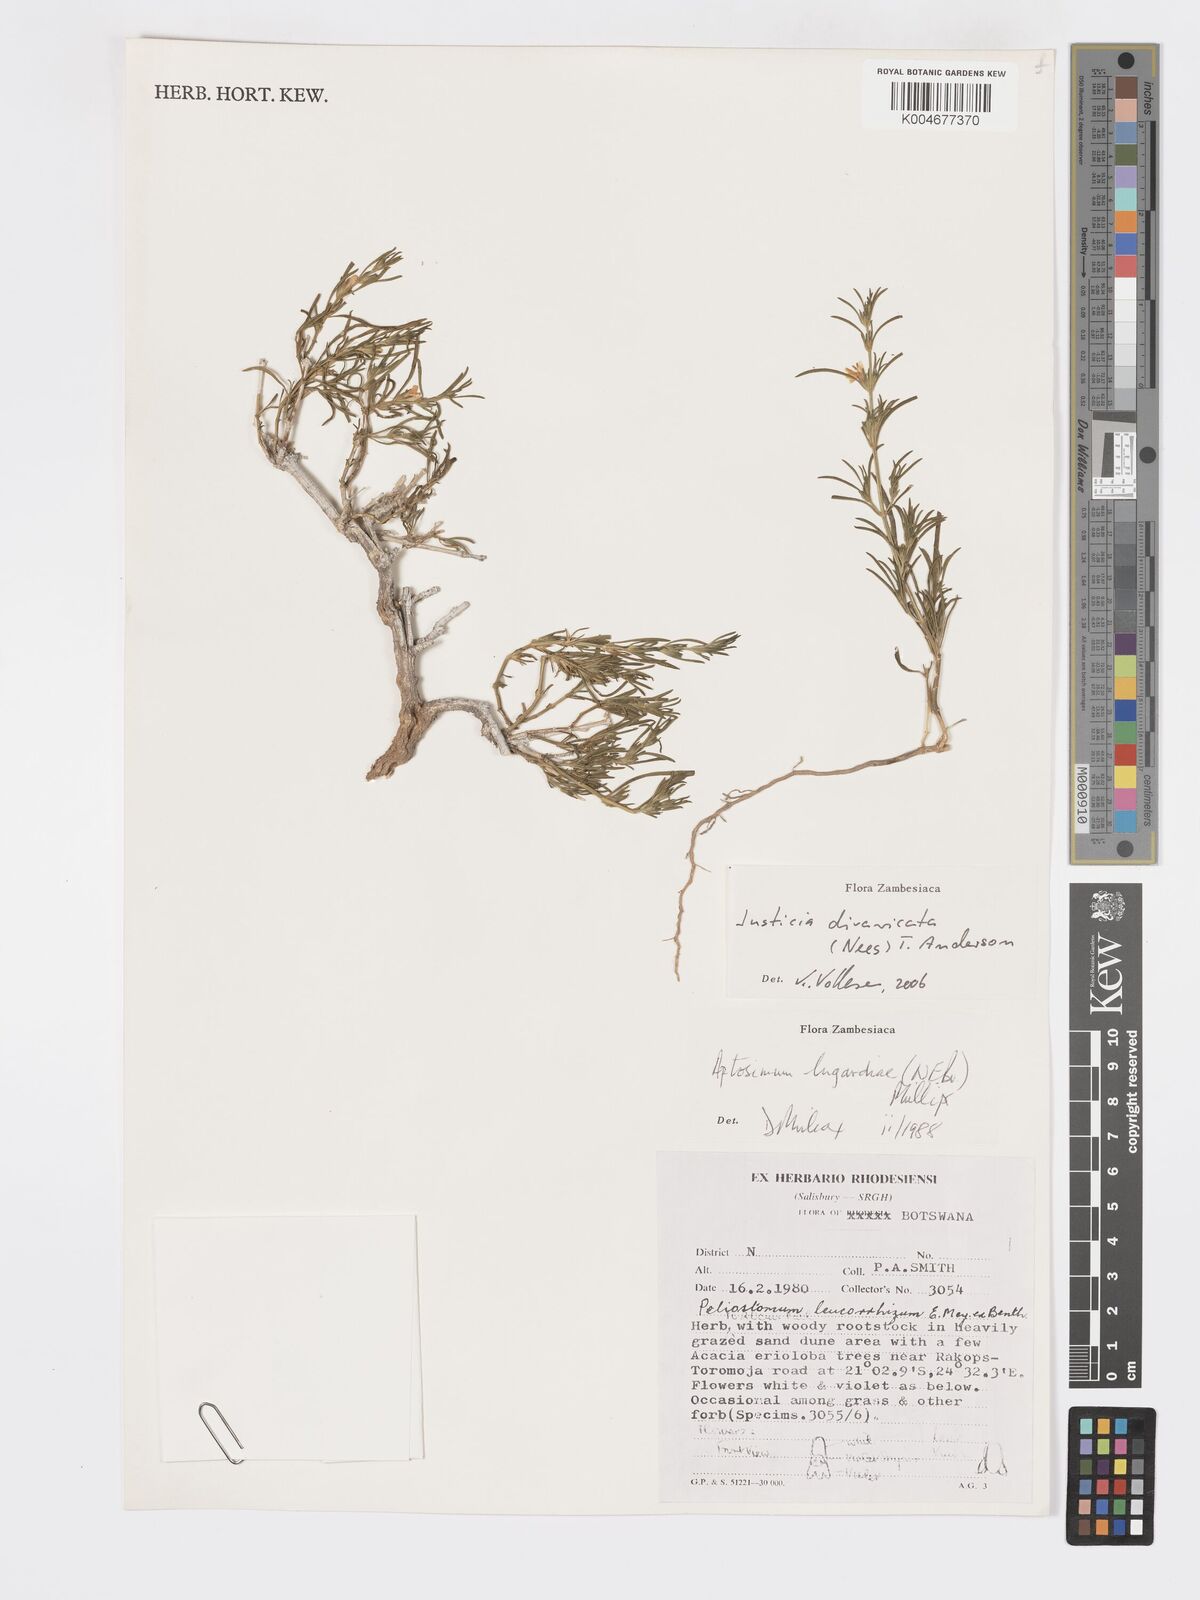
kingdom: Plantae
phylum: Tracheophyta
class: Magnoliopsida
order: Lamiales
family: Acanthaceae
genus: Pogonospermum
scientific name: Pogonospermum
